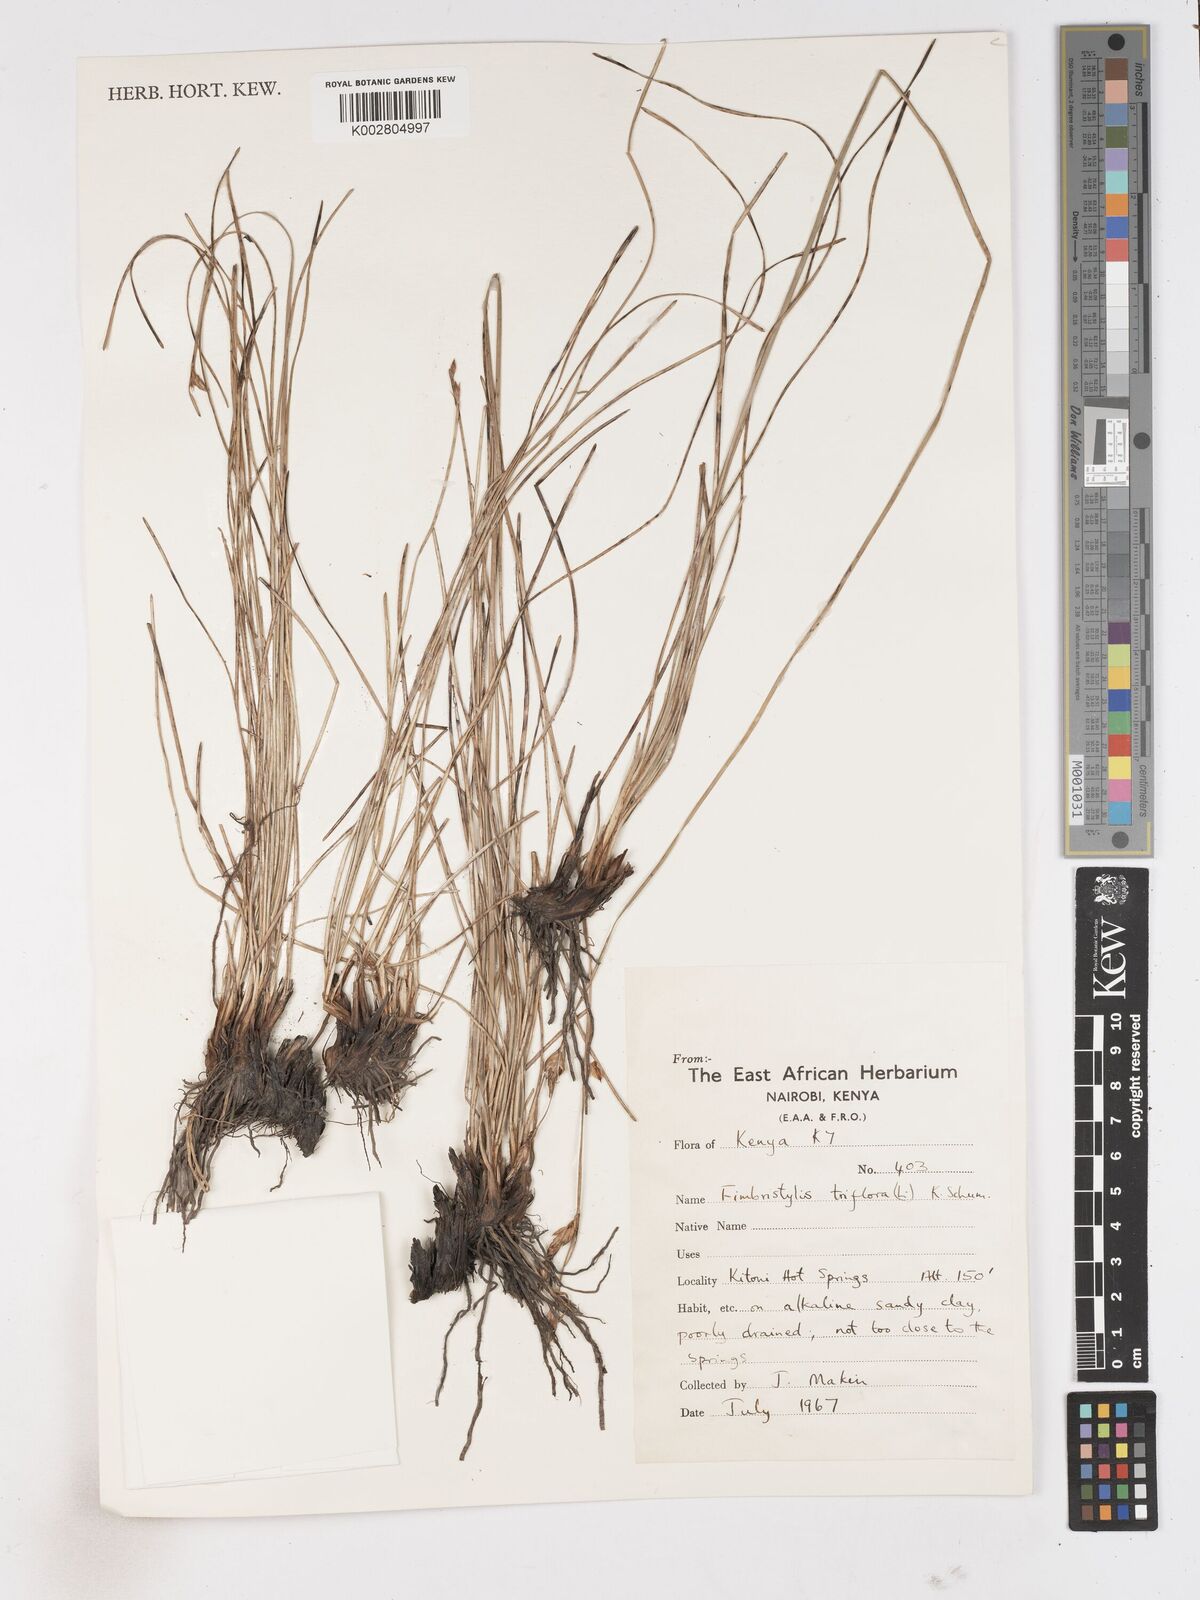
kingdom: Plantae
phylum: Tracheophyta
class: Liliopsida
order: Poales
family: Cyperaceae
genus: Abildgaardia
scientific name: Abildgaardia triflora
